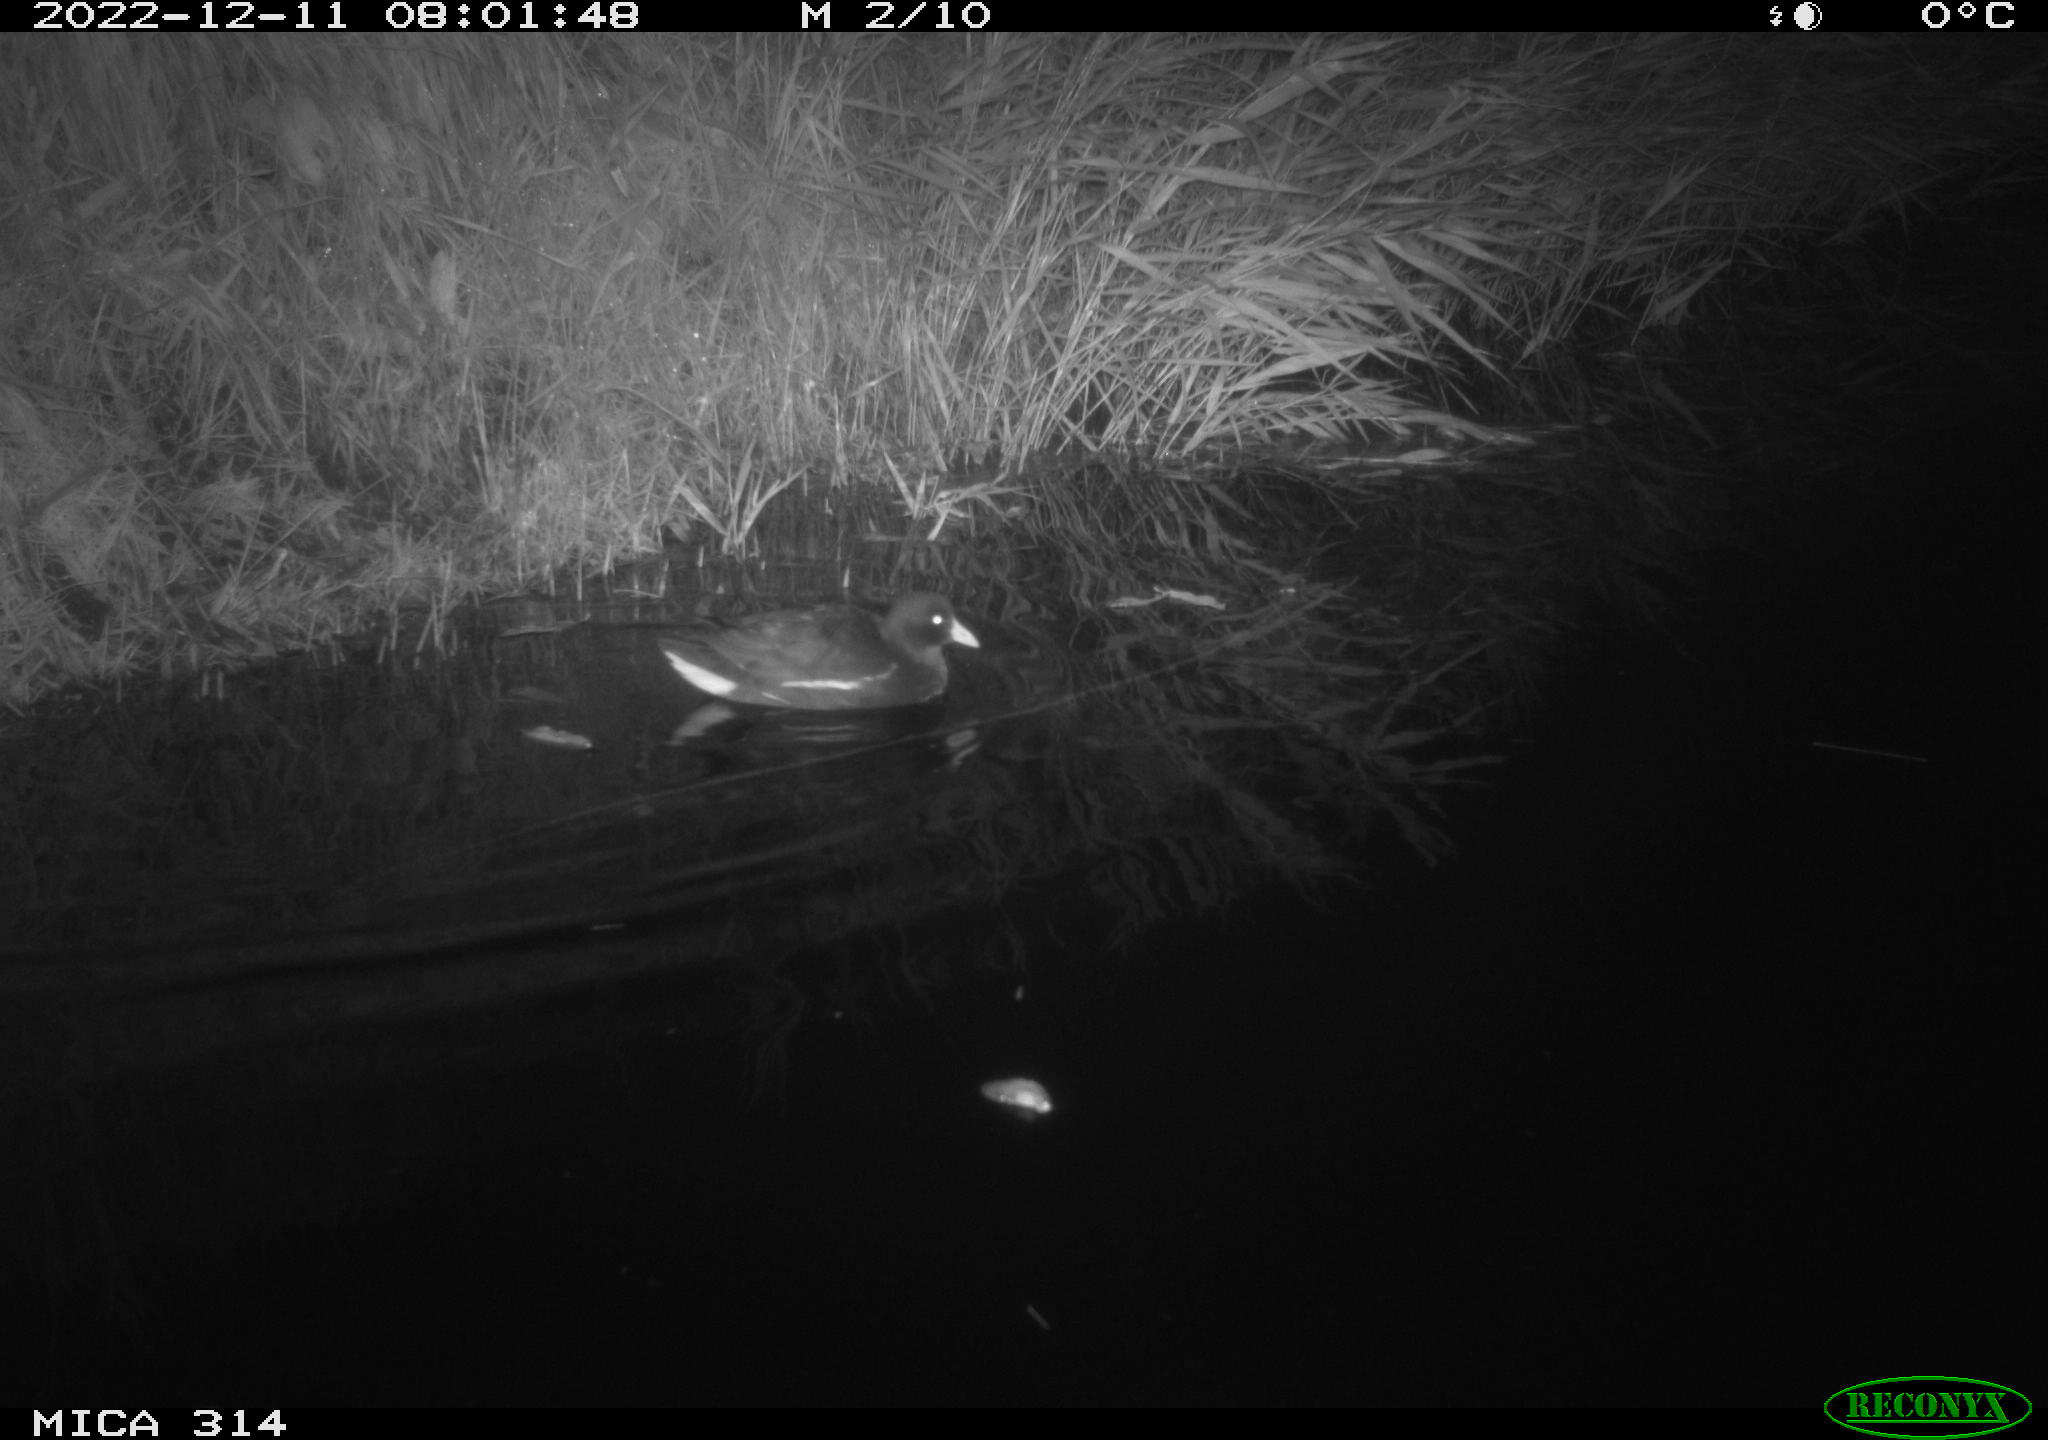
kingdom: Animalia
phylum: Chordata
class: Aves
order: Gruiformes
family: Rallidae
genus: Gallinula
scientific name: Gallinula chloropus
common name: Common moorhen
